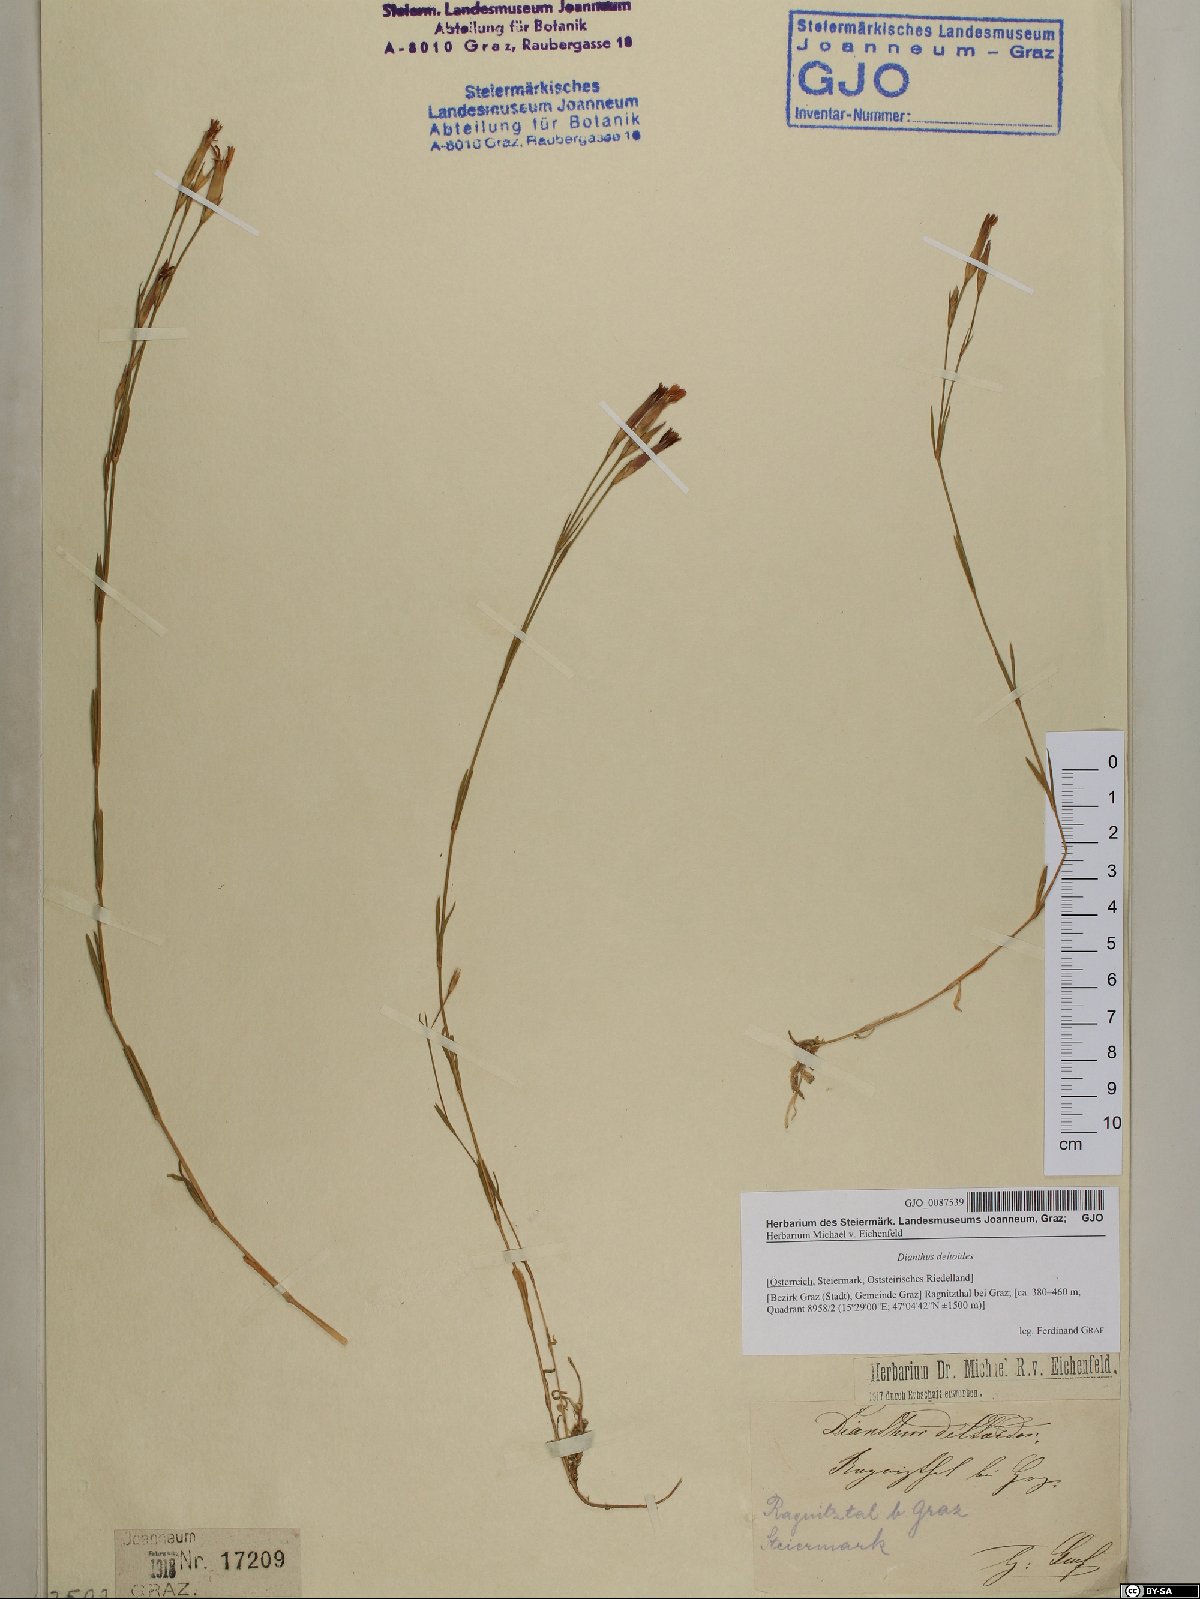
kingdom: Plantae
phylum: Tracheophyta
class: Magnoliopsida
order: Caryophyllales
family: Caryophyllaceae
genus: Dianthus
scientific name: Dianthus deltoides
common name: Maiden pink
